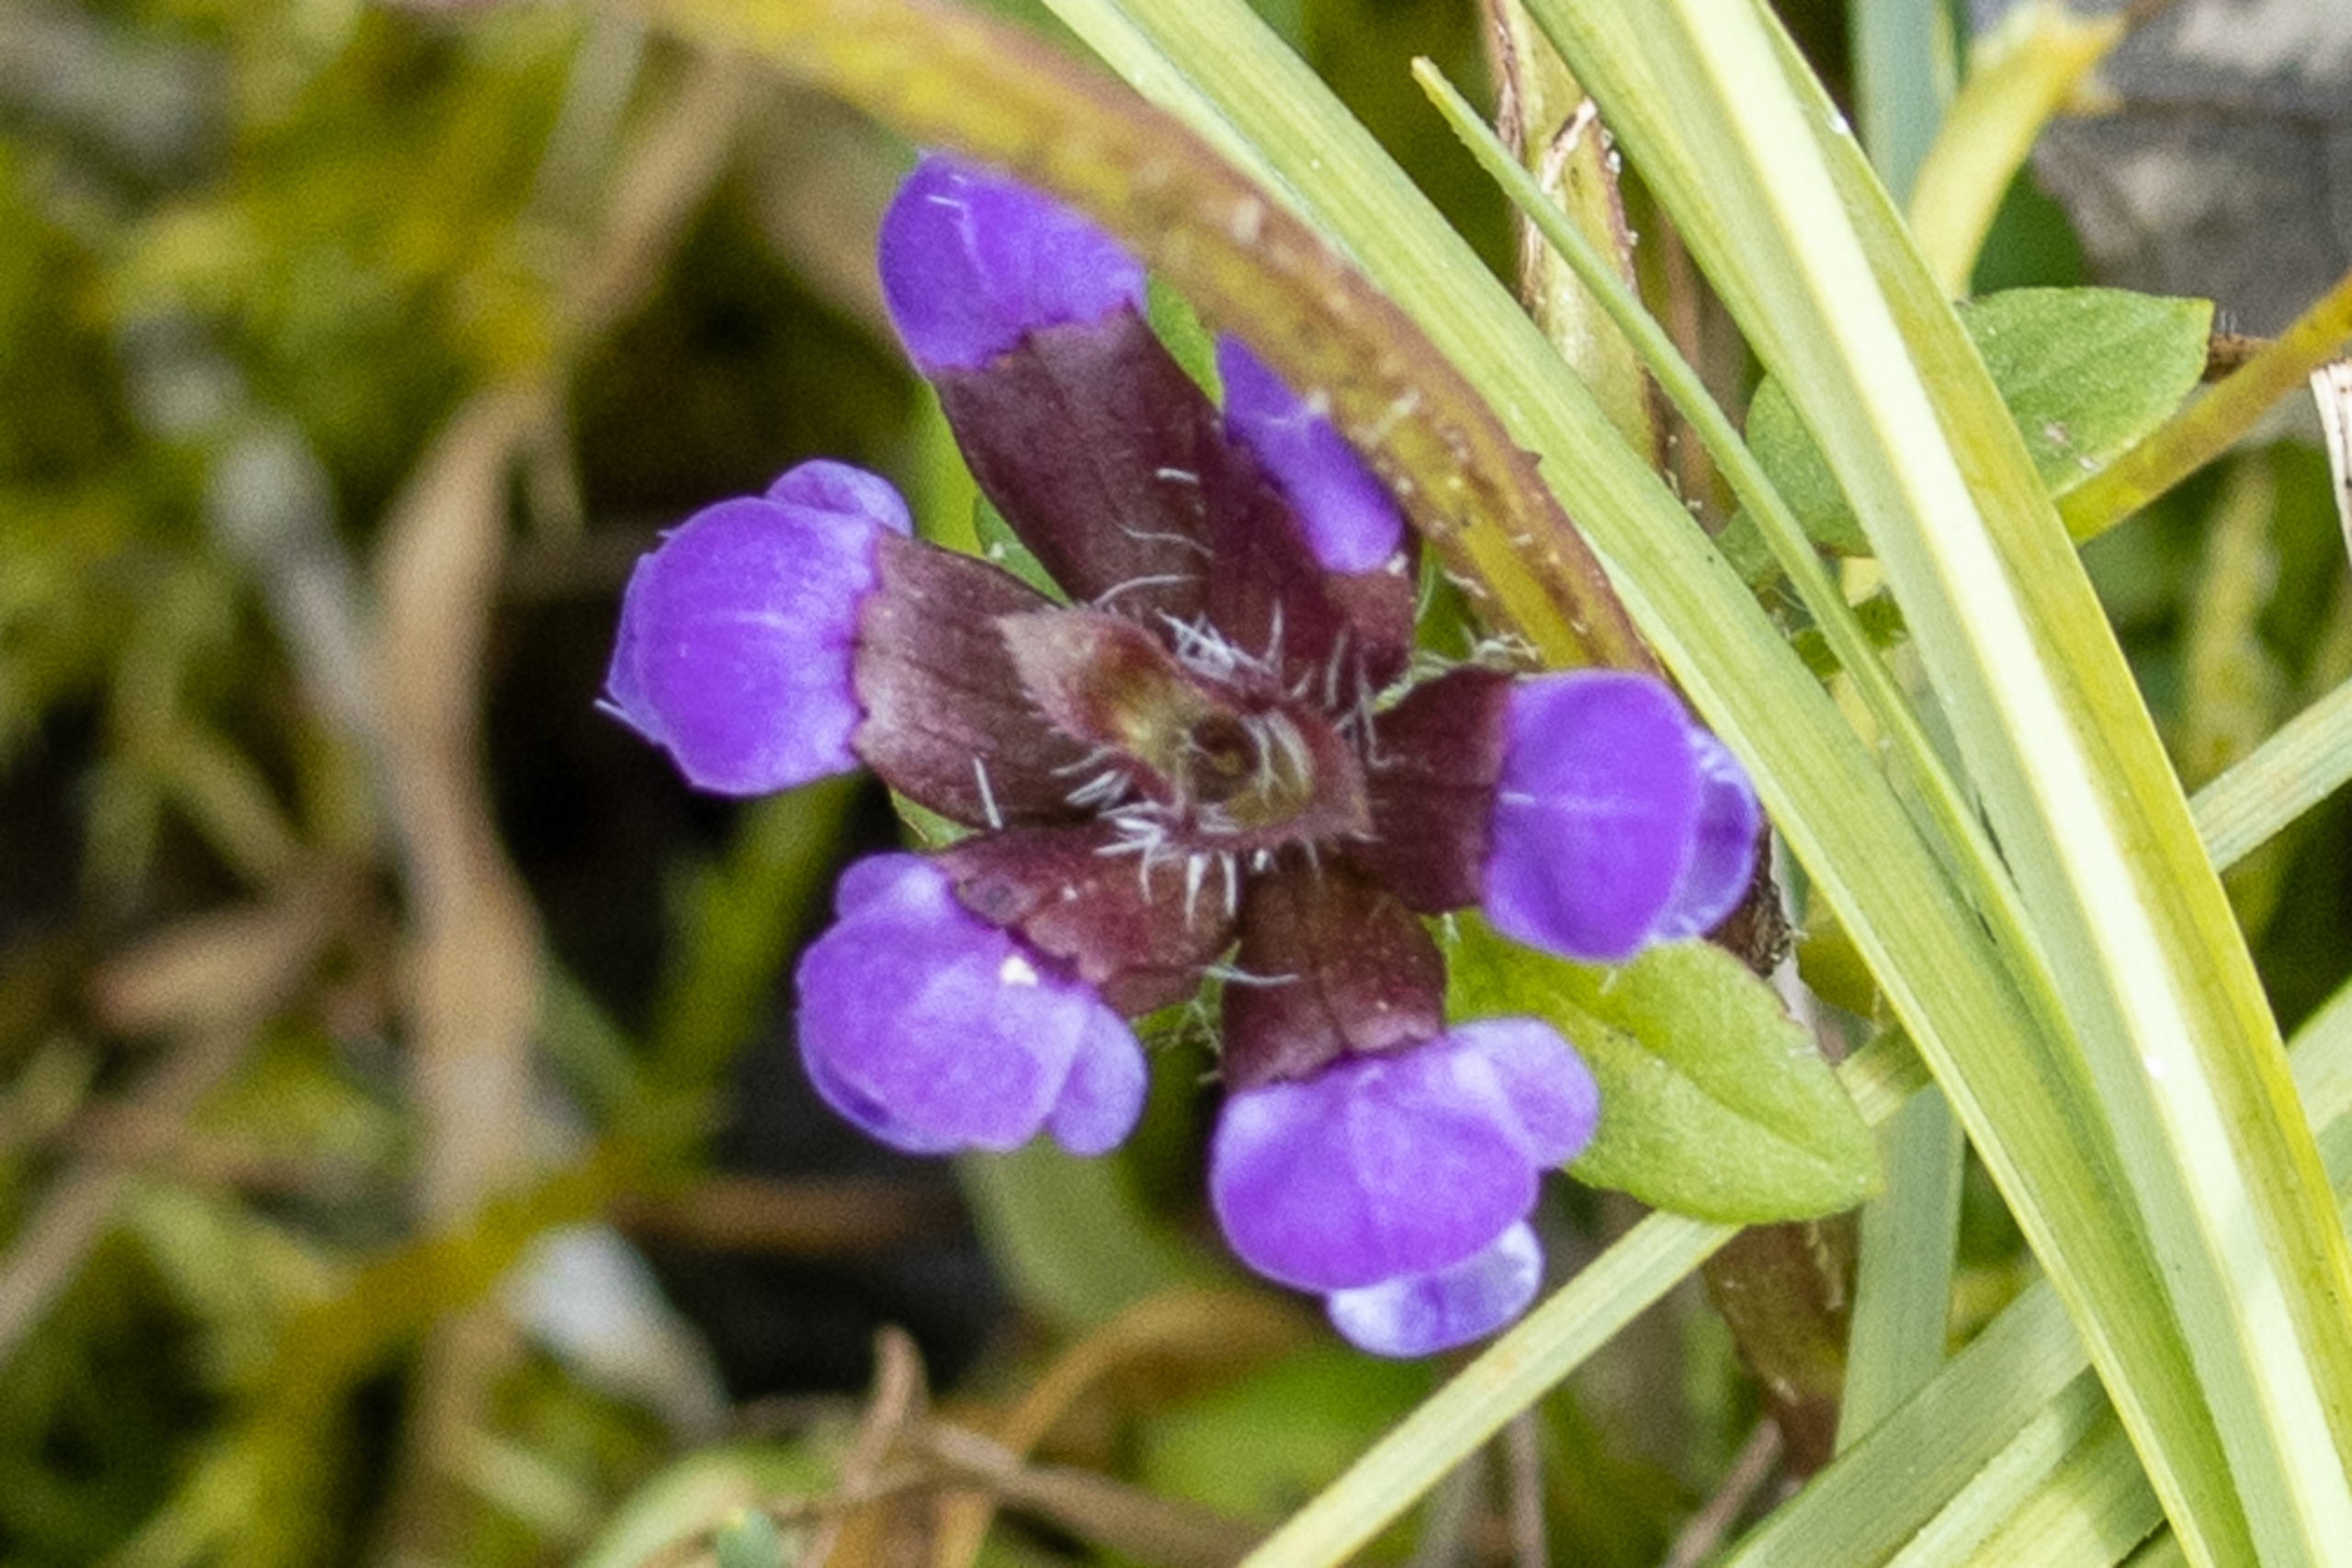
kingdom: Plantae
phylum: Tracheophyta
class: Magnoliopsida
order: Lamiales
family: Lamiaceae
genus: Prunella
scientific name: Prunella vulgaris
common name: Almindelig brunelle
